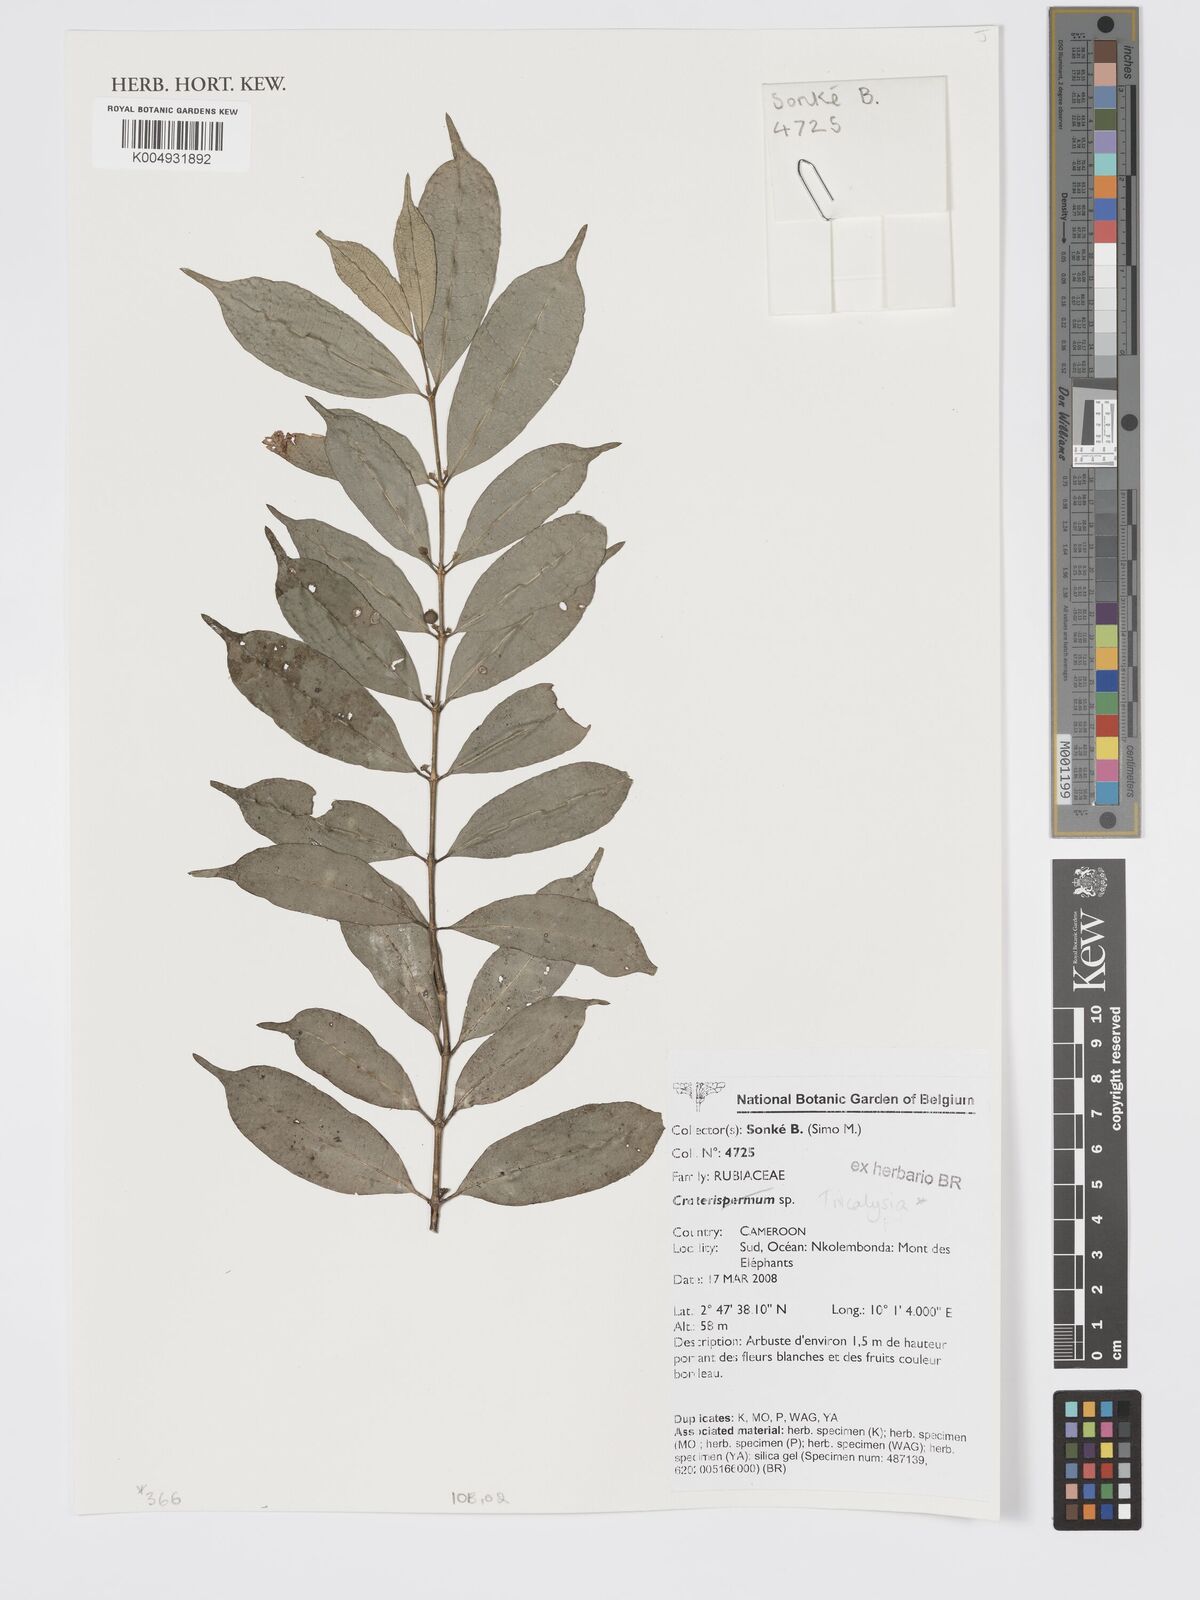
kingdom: Plantae
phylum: Tracheophyta
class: Magnoliopsida
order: Gentianales
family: Rubiaceae
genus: Tricalysia
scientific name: Tricalysia
